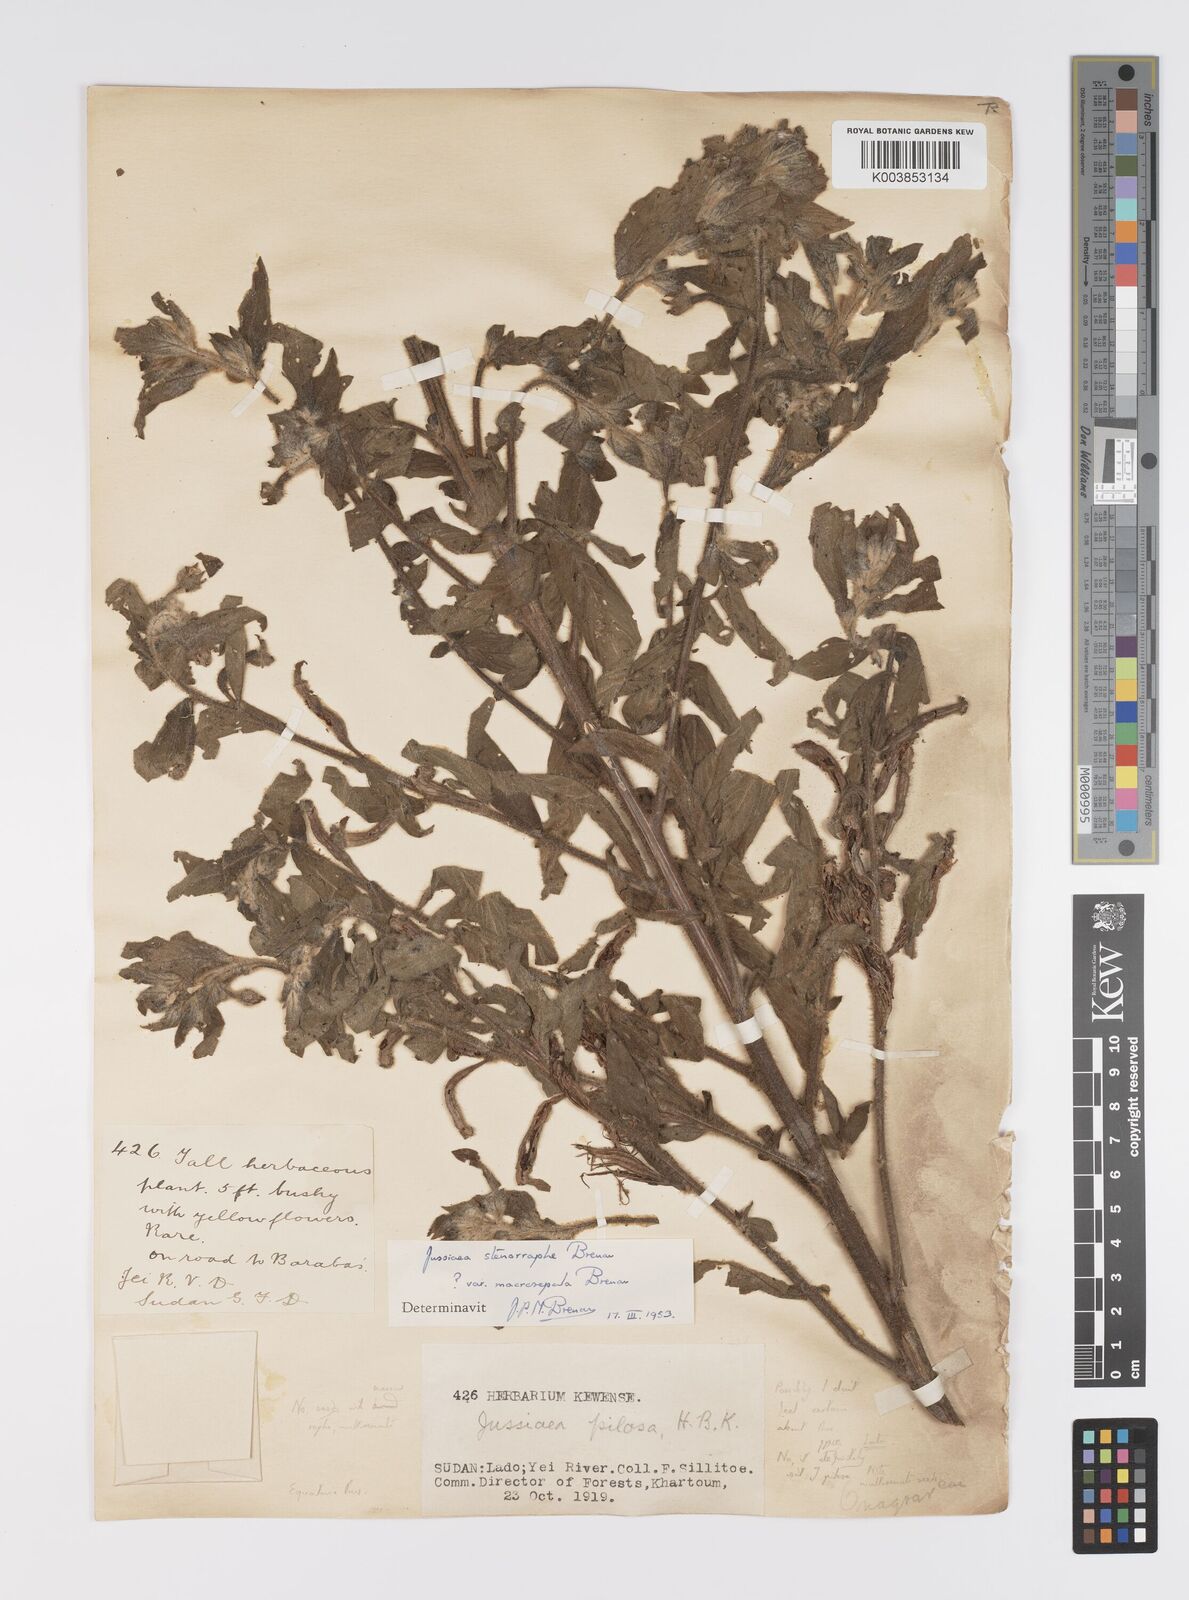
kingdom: Plantae
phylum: Tracheophyta
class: Magnoliopsida
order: Myrtales
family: Onagraceae
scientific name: Onagraceae
